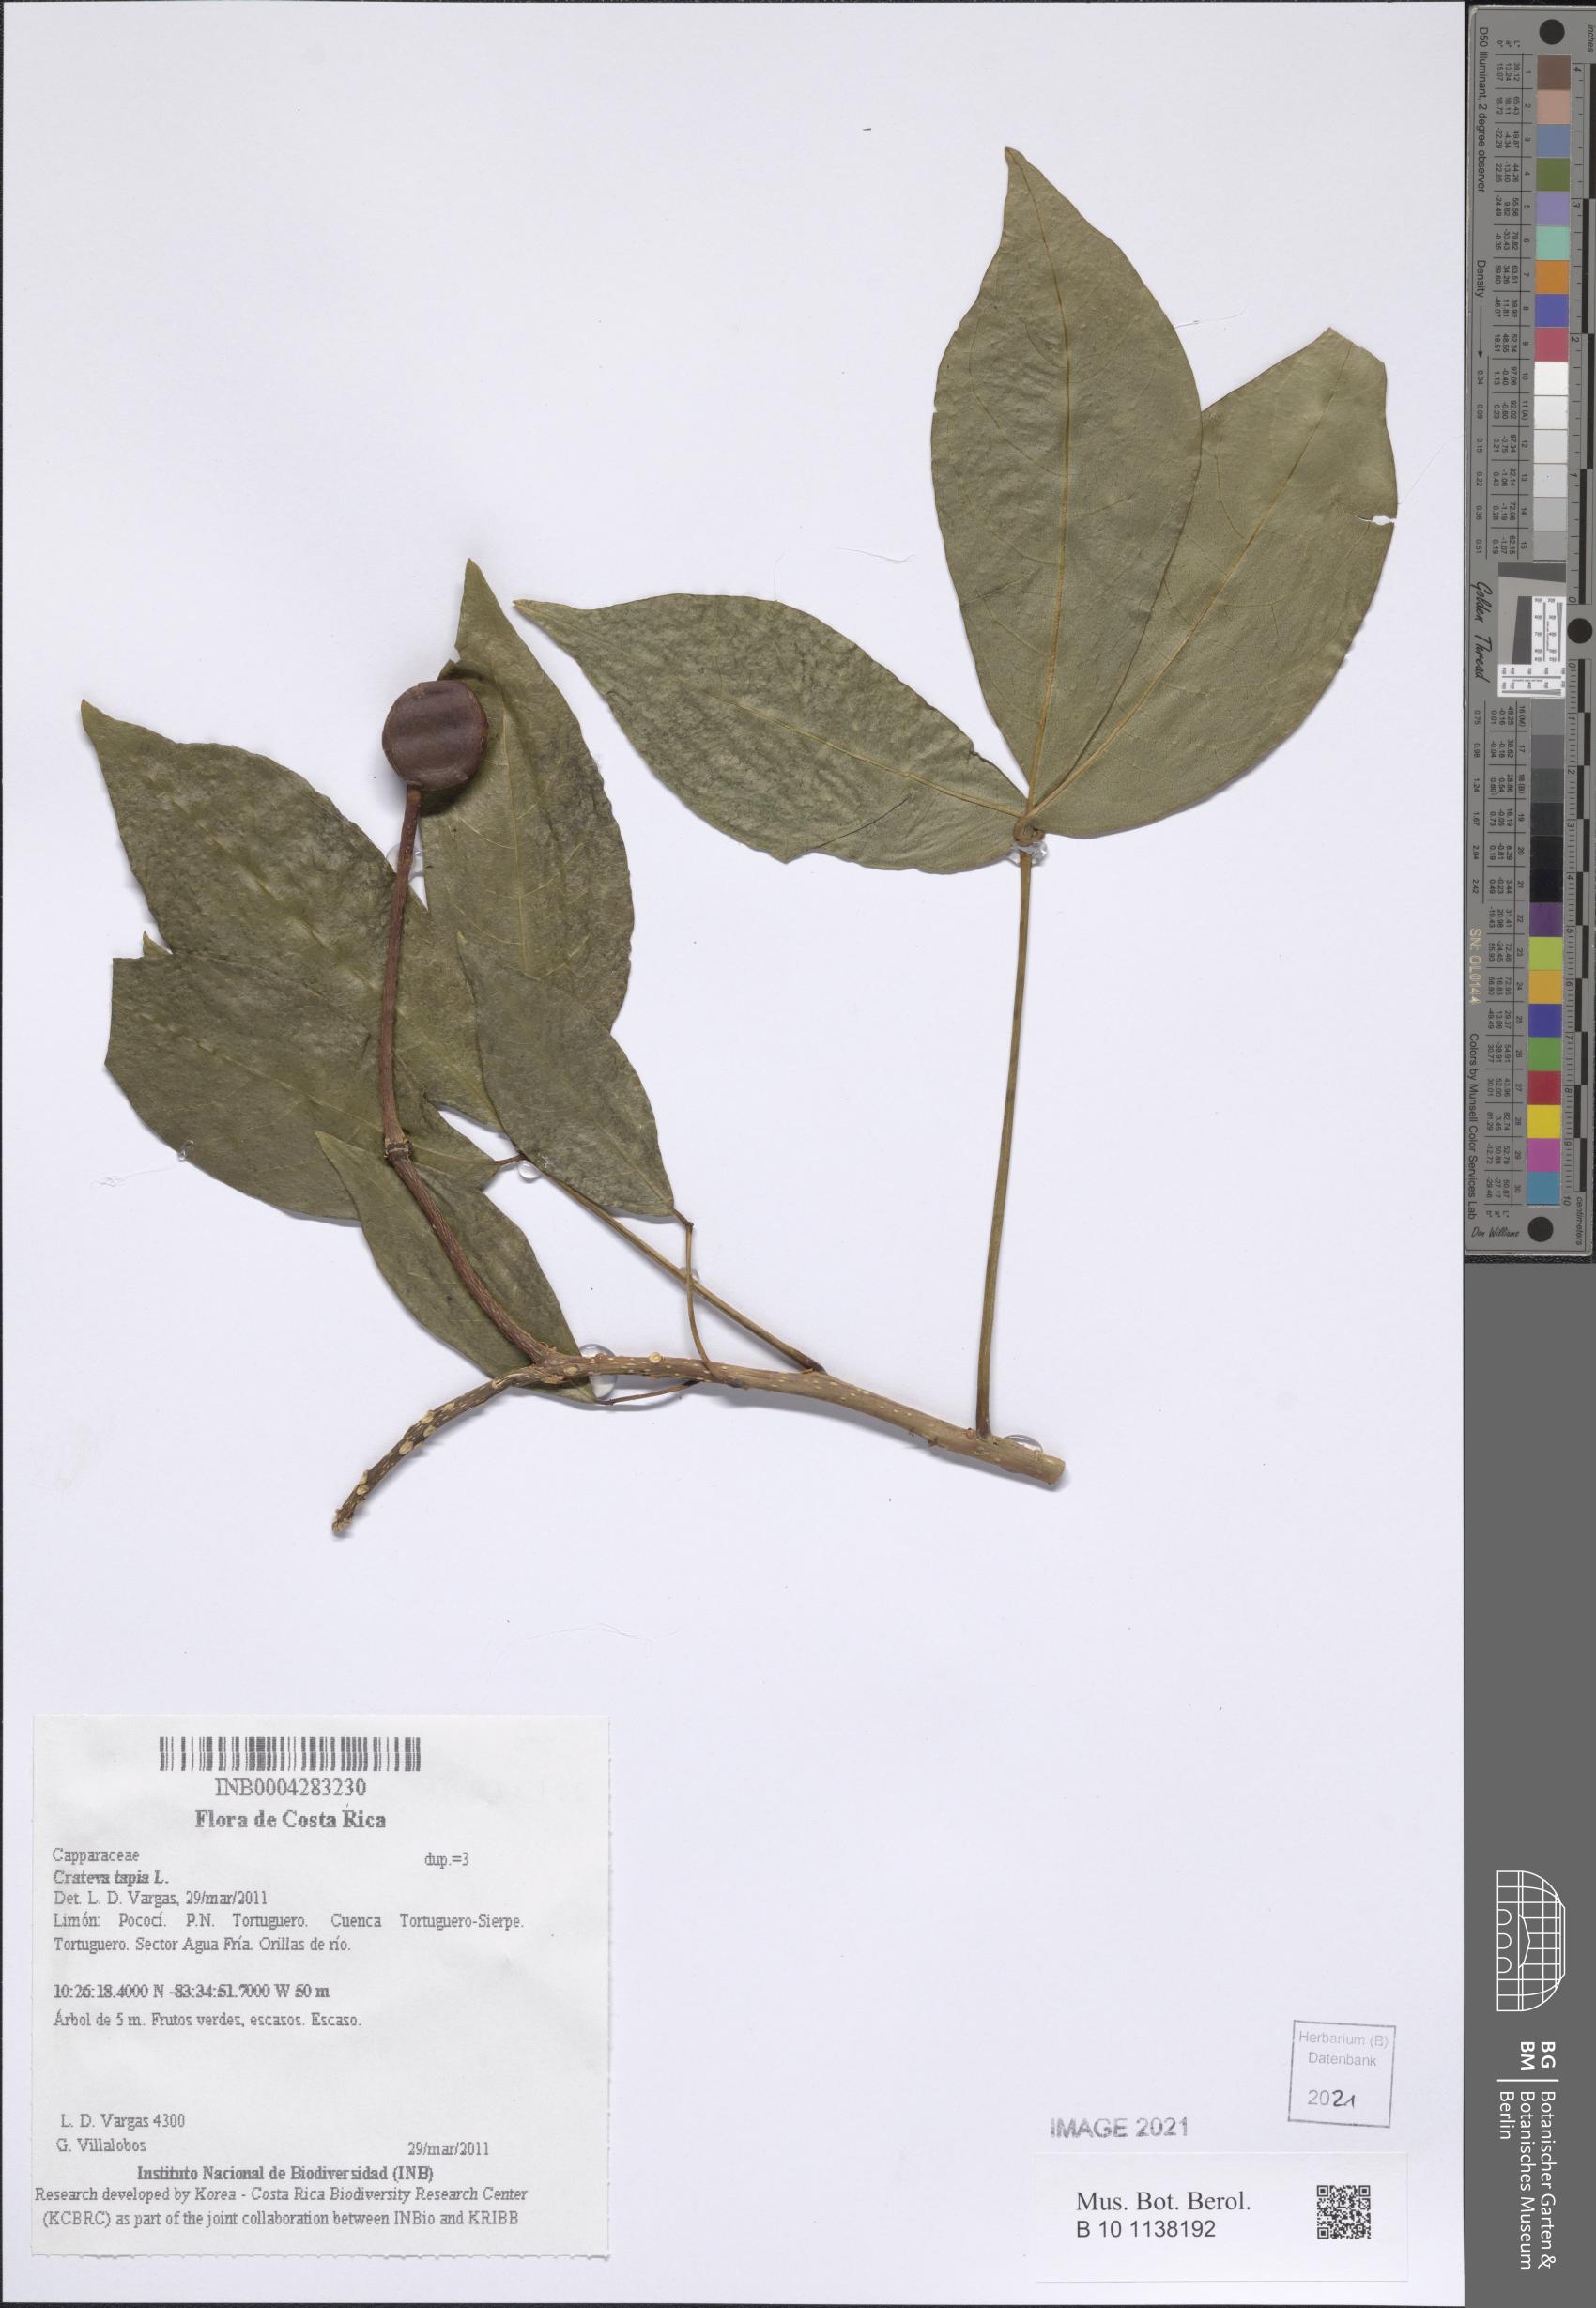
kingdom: Plantae
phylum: Tracheophyta
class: Magnoliopsida
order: Brassicales
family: Capparaceae
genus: Crateva
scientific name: Crateva tapia
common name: Garlic-pear
